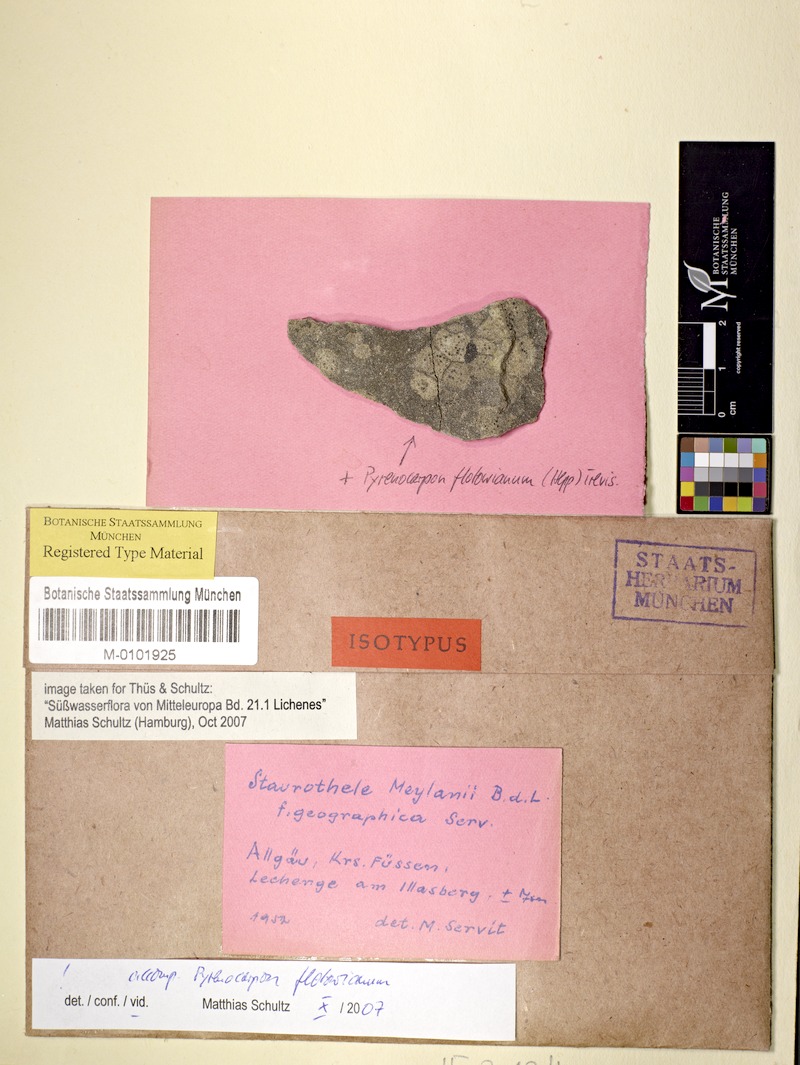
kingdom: Fungi
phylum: Ascomycota
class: Eurotiomycetes
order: Verrucariales
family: Verrucariaceae
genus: Staurothele
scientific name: Staurothele solvens
